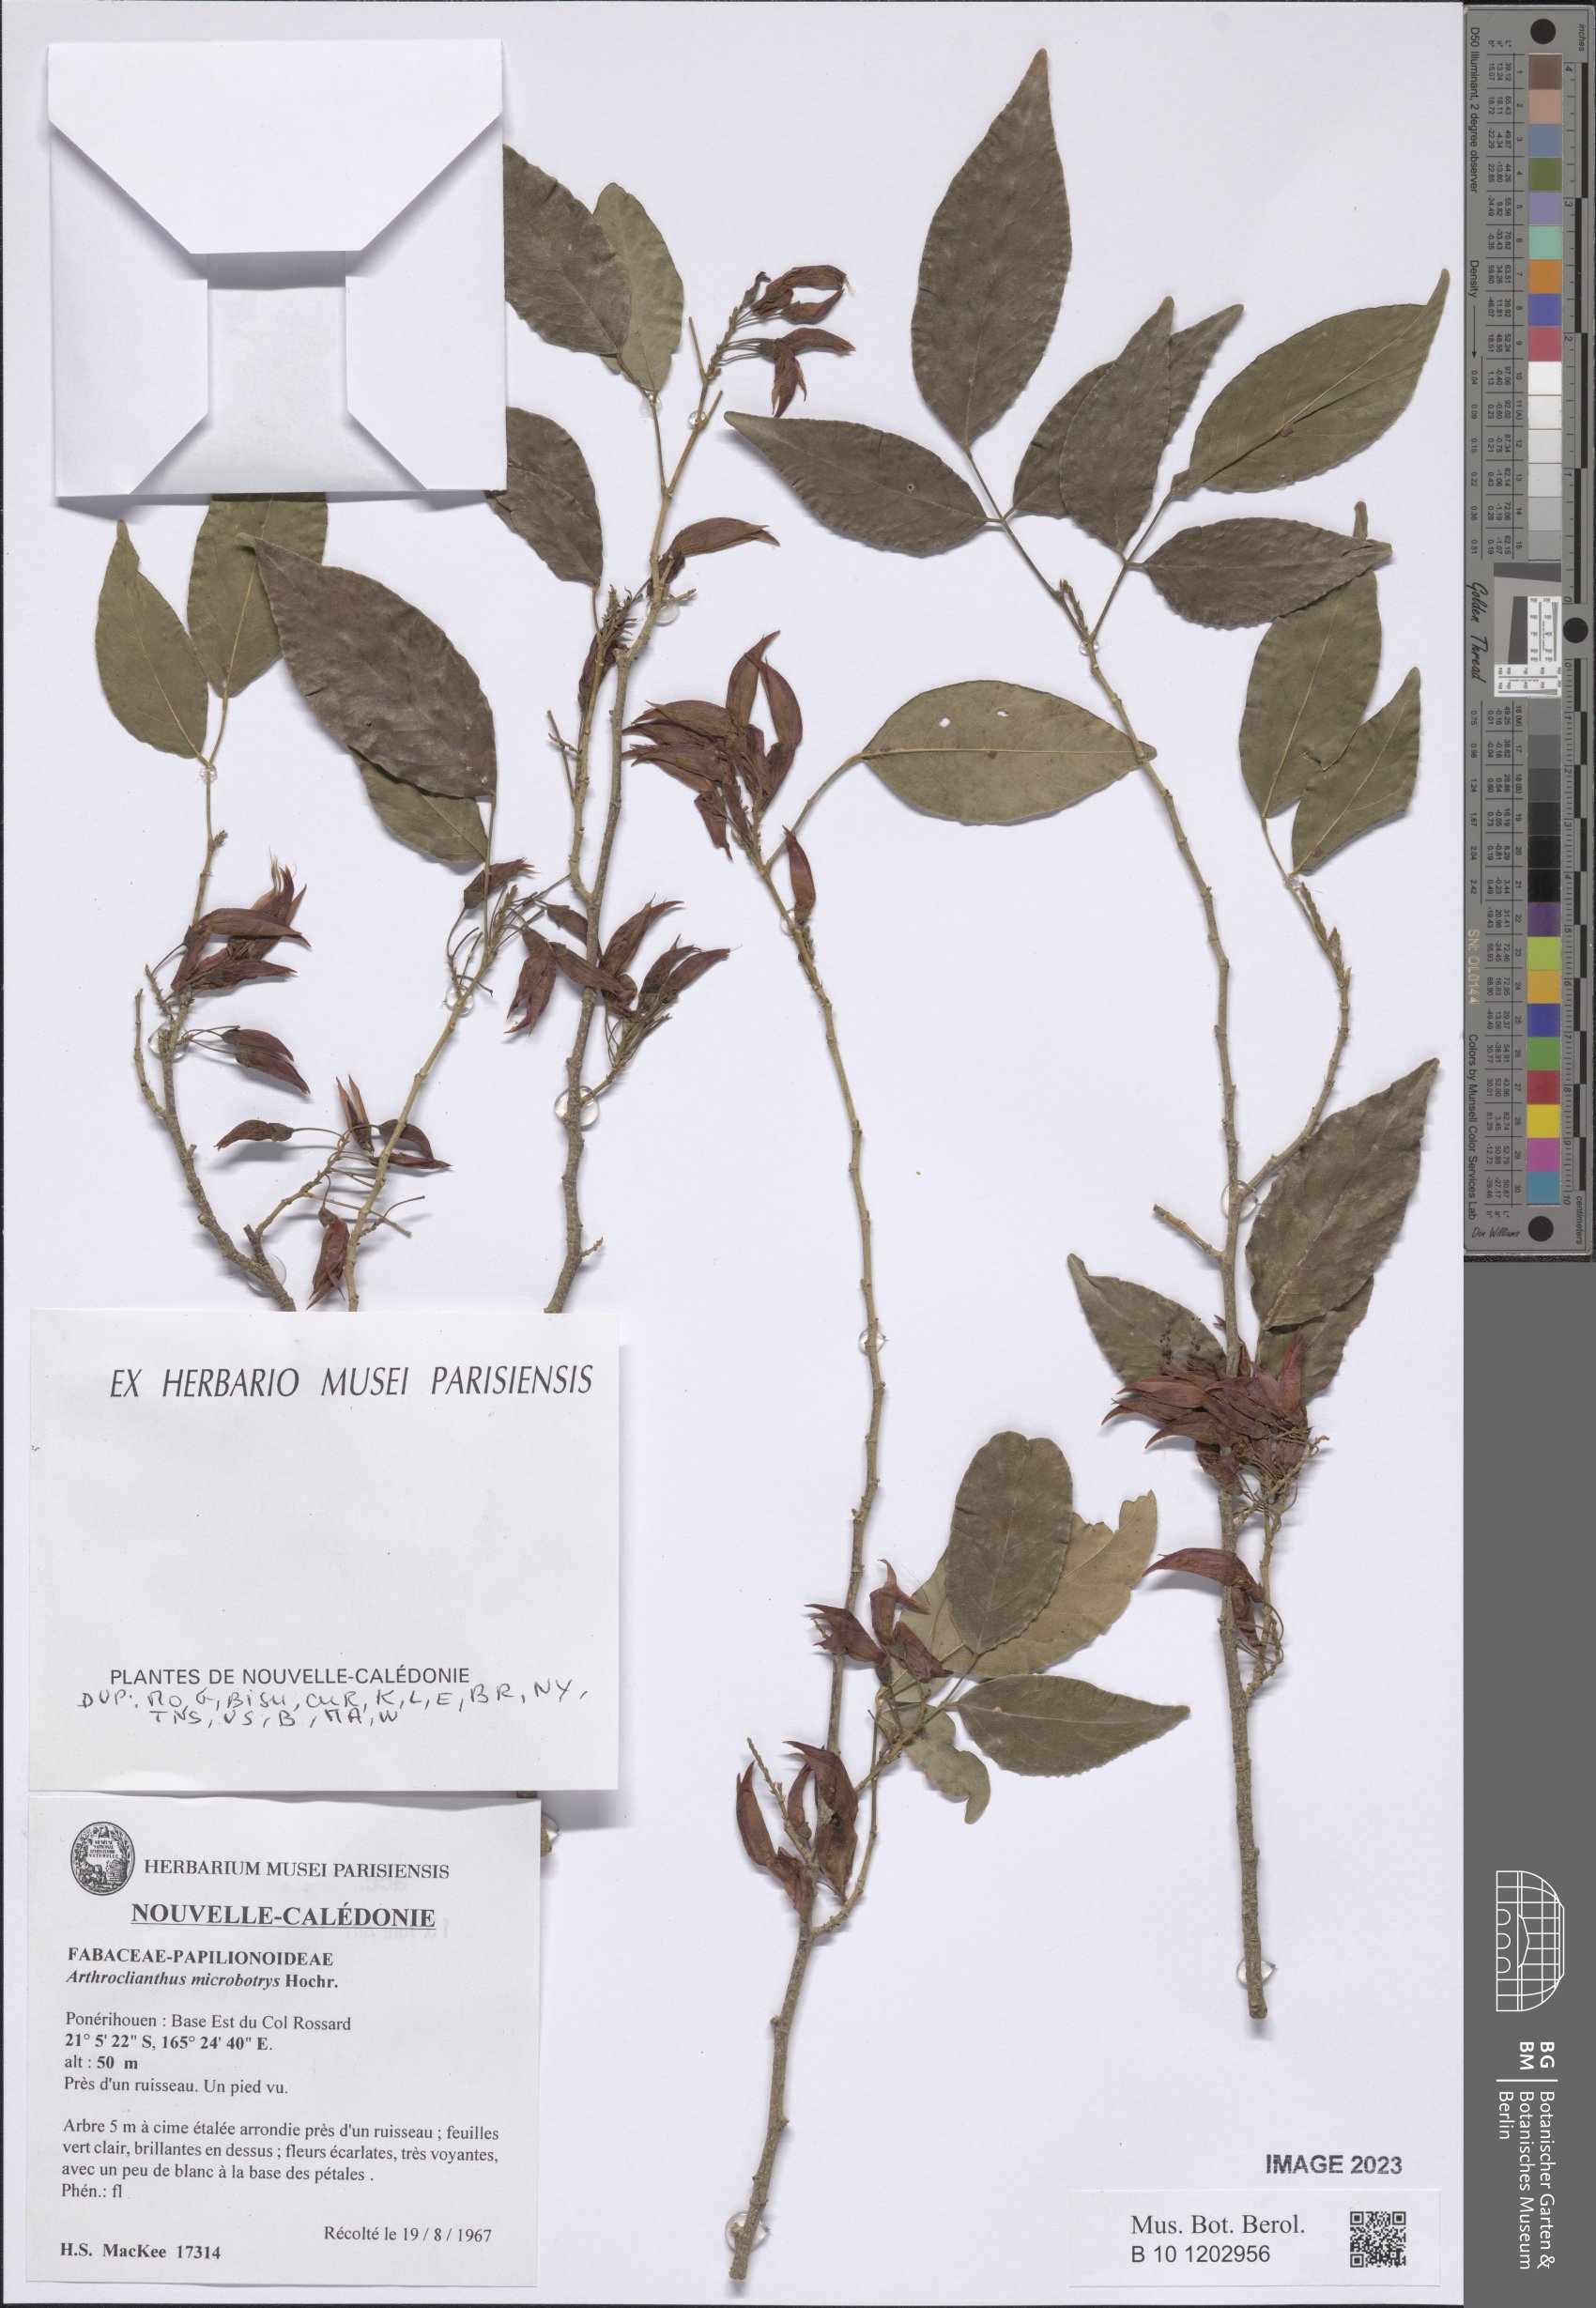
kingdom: Plantae
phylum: Tracheophyta
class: Magnoliopsida
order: Fabales
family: Fabaceae
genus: Arthroclianthus
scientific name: Arthroclianthus microbotrys
